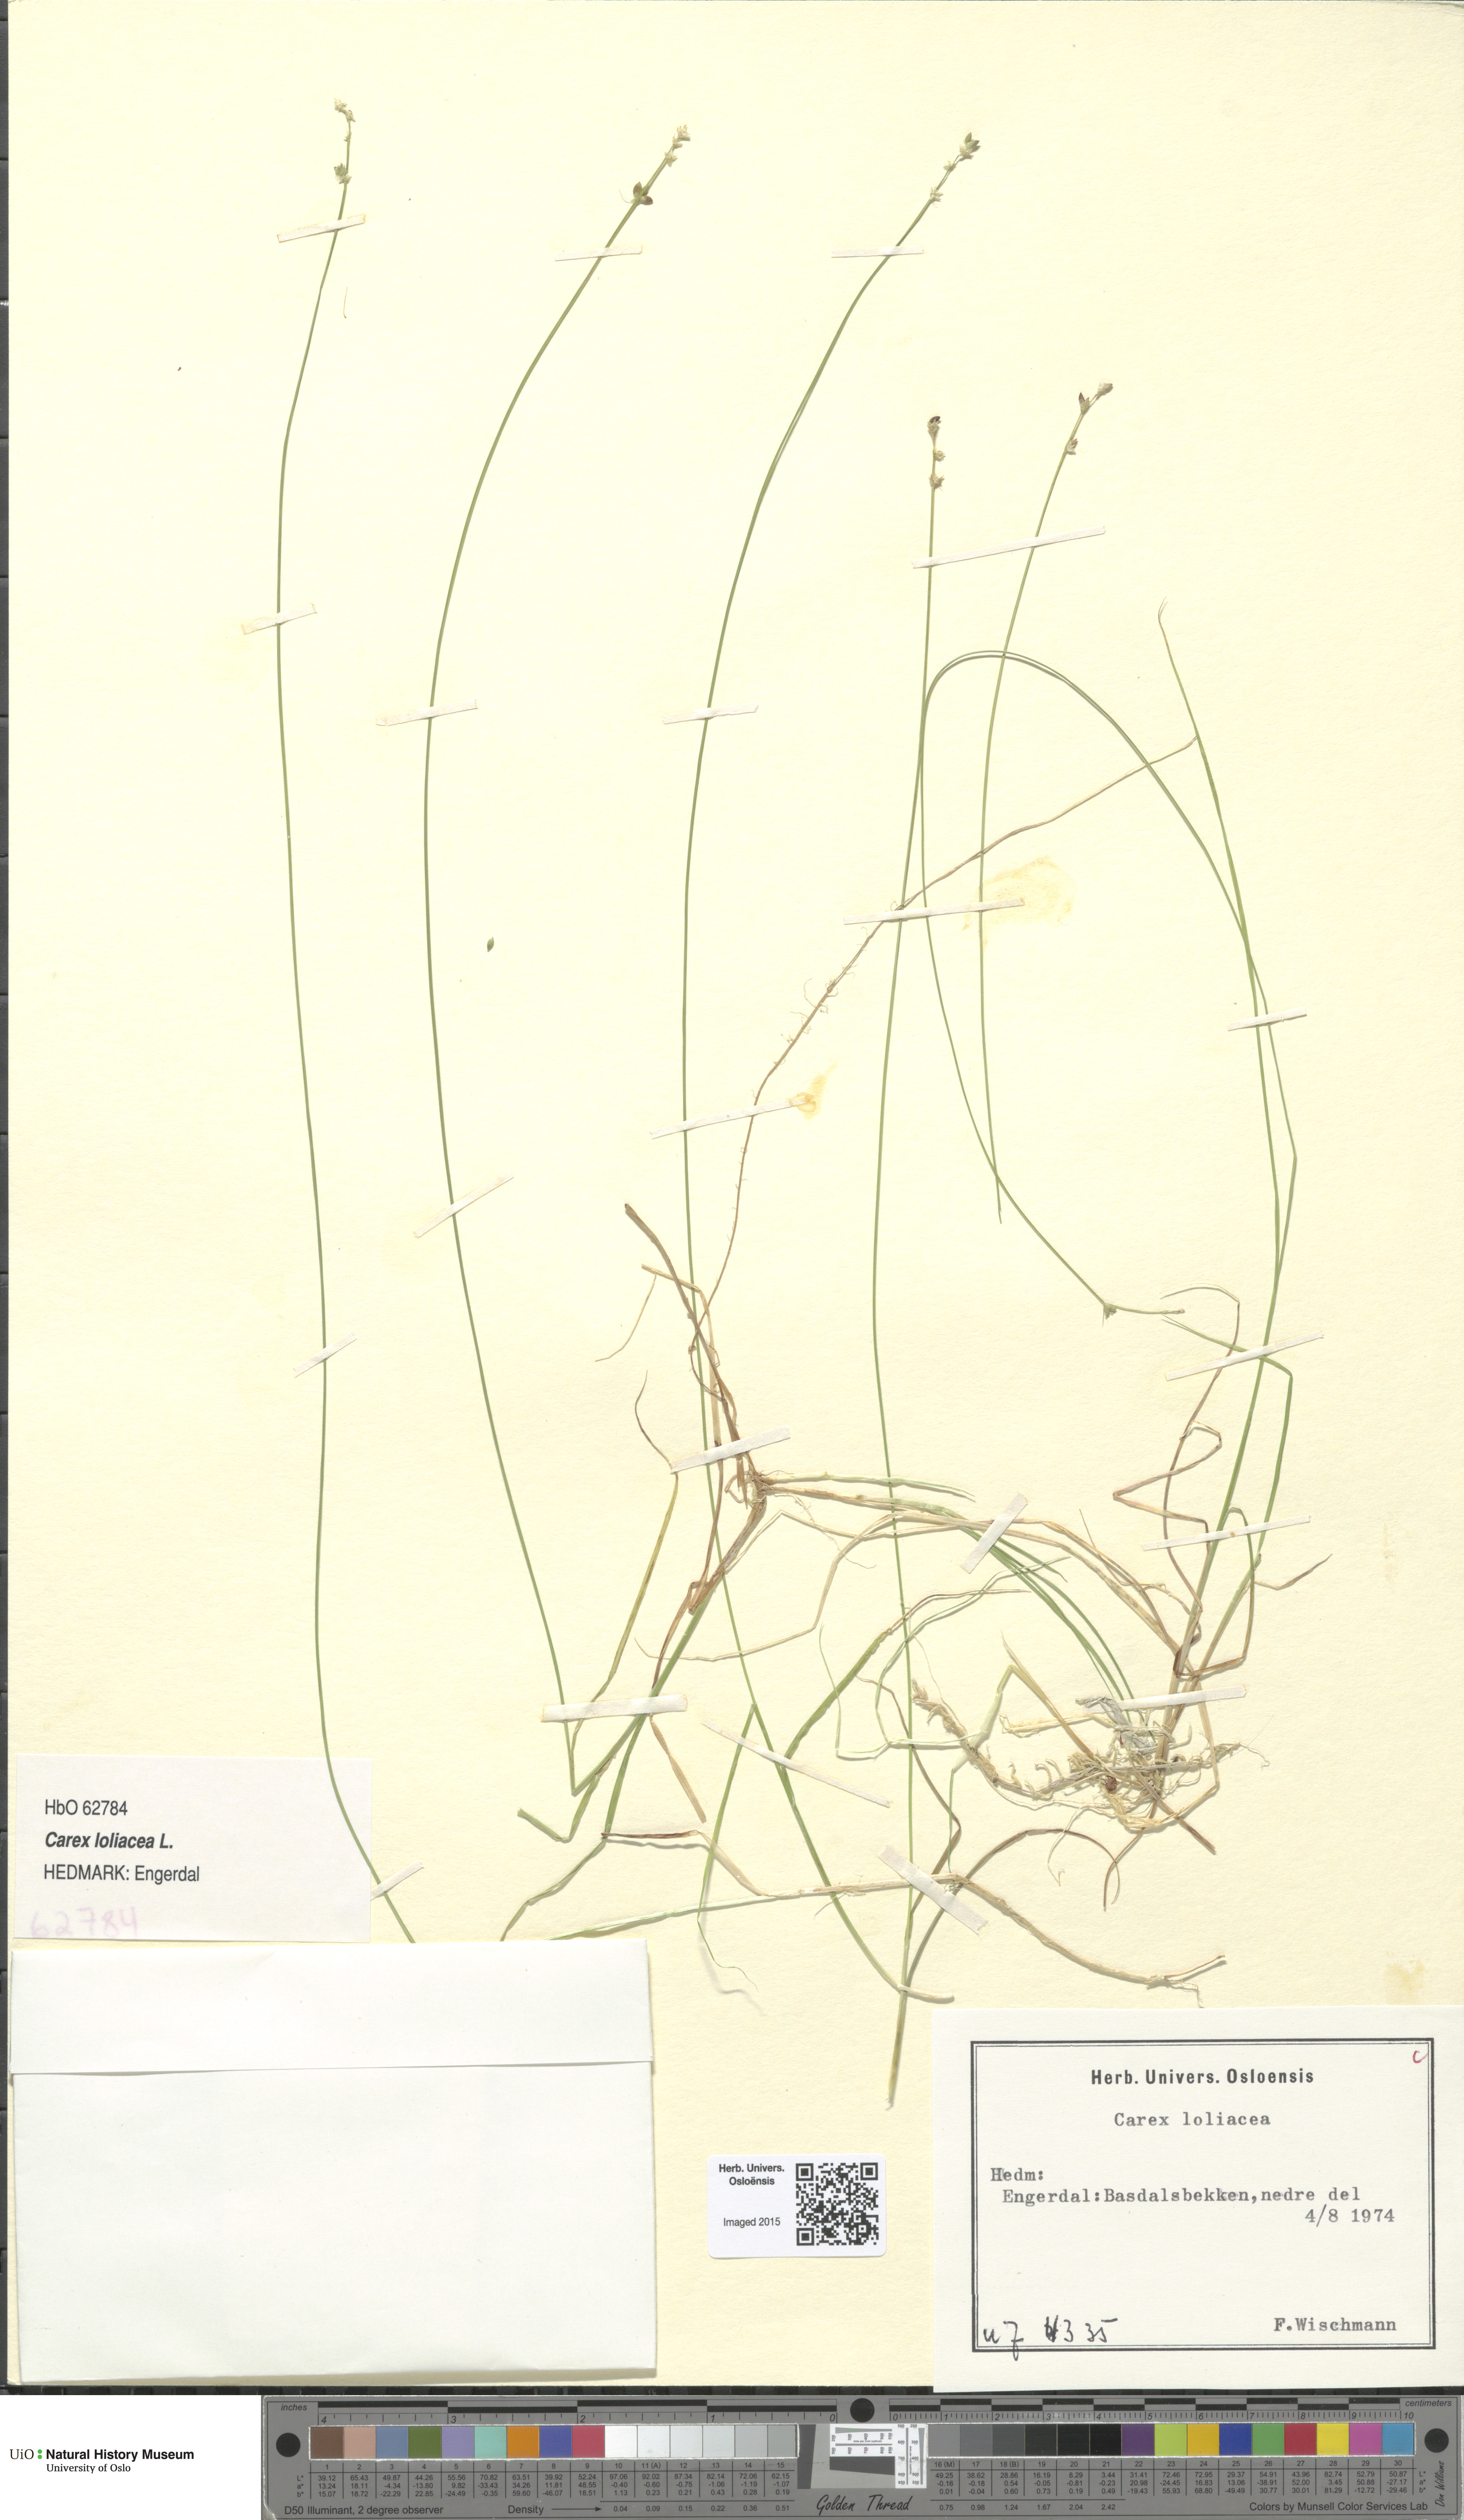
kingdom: Plantae
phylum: Tracheophyta
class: Liliopsida
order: Poales
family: Cyperaceae
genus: Carex
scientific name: Carex loliacea
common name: Ryegrass sedge
